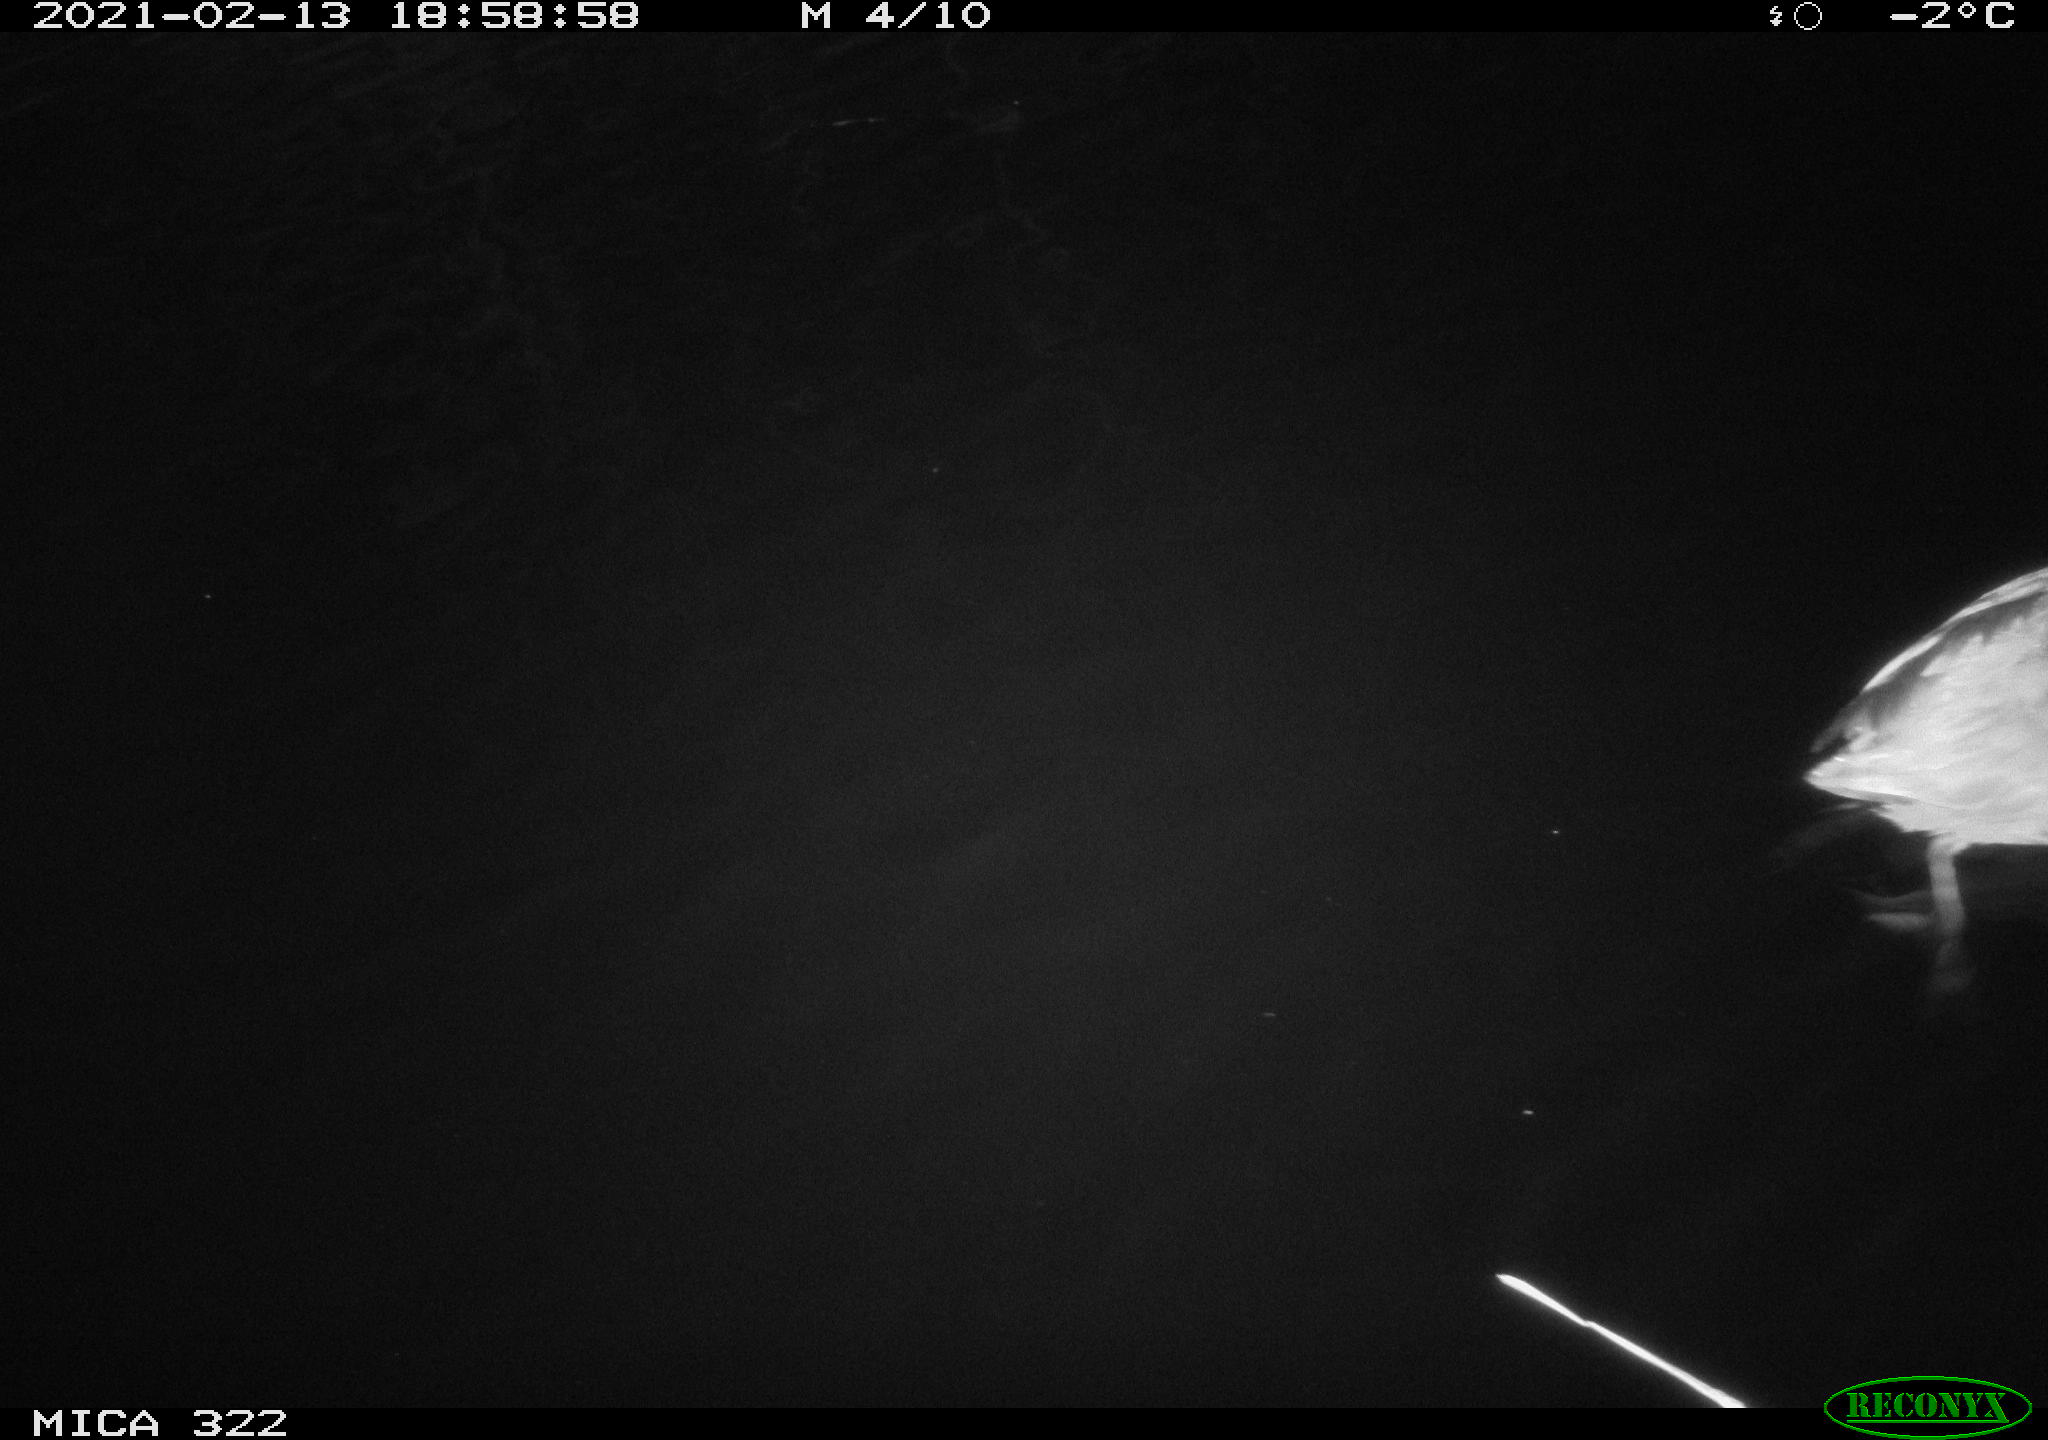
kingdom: Animalia
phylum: Chordata
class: Aves
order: Gruiformes
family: Rallidae
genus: Fulica
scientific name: Fulica atra
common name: Eurasian coot
